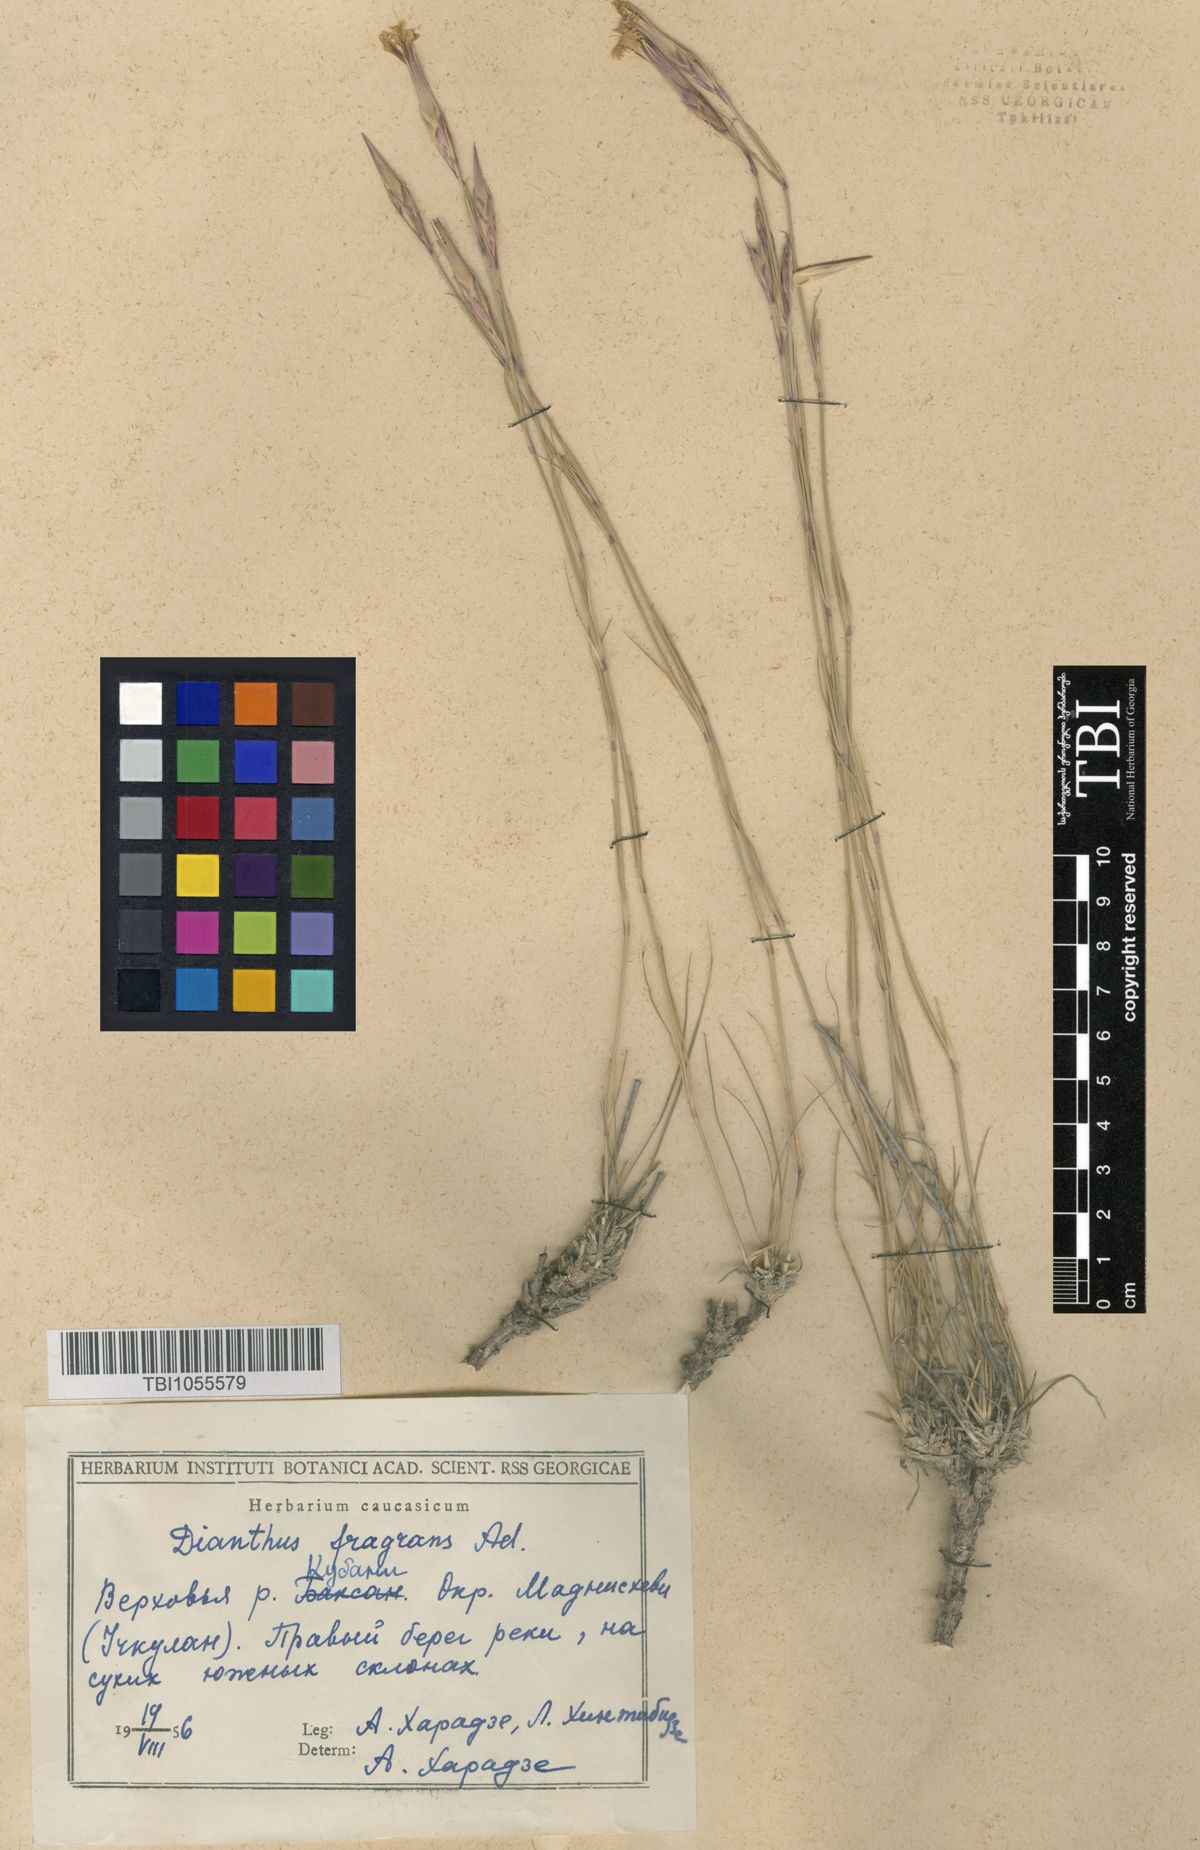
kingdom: Plantae
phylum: Tracheophyta
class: Magnoliopsida
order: Caryophyllales
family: Caryophyllaceae
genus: Dianthus
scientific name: Dianthus
